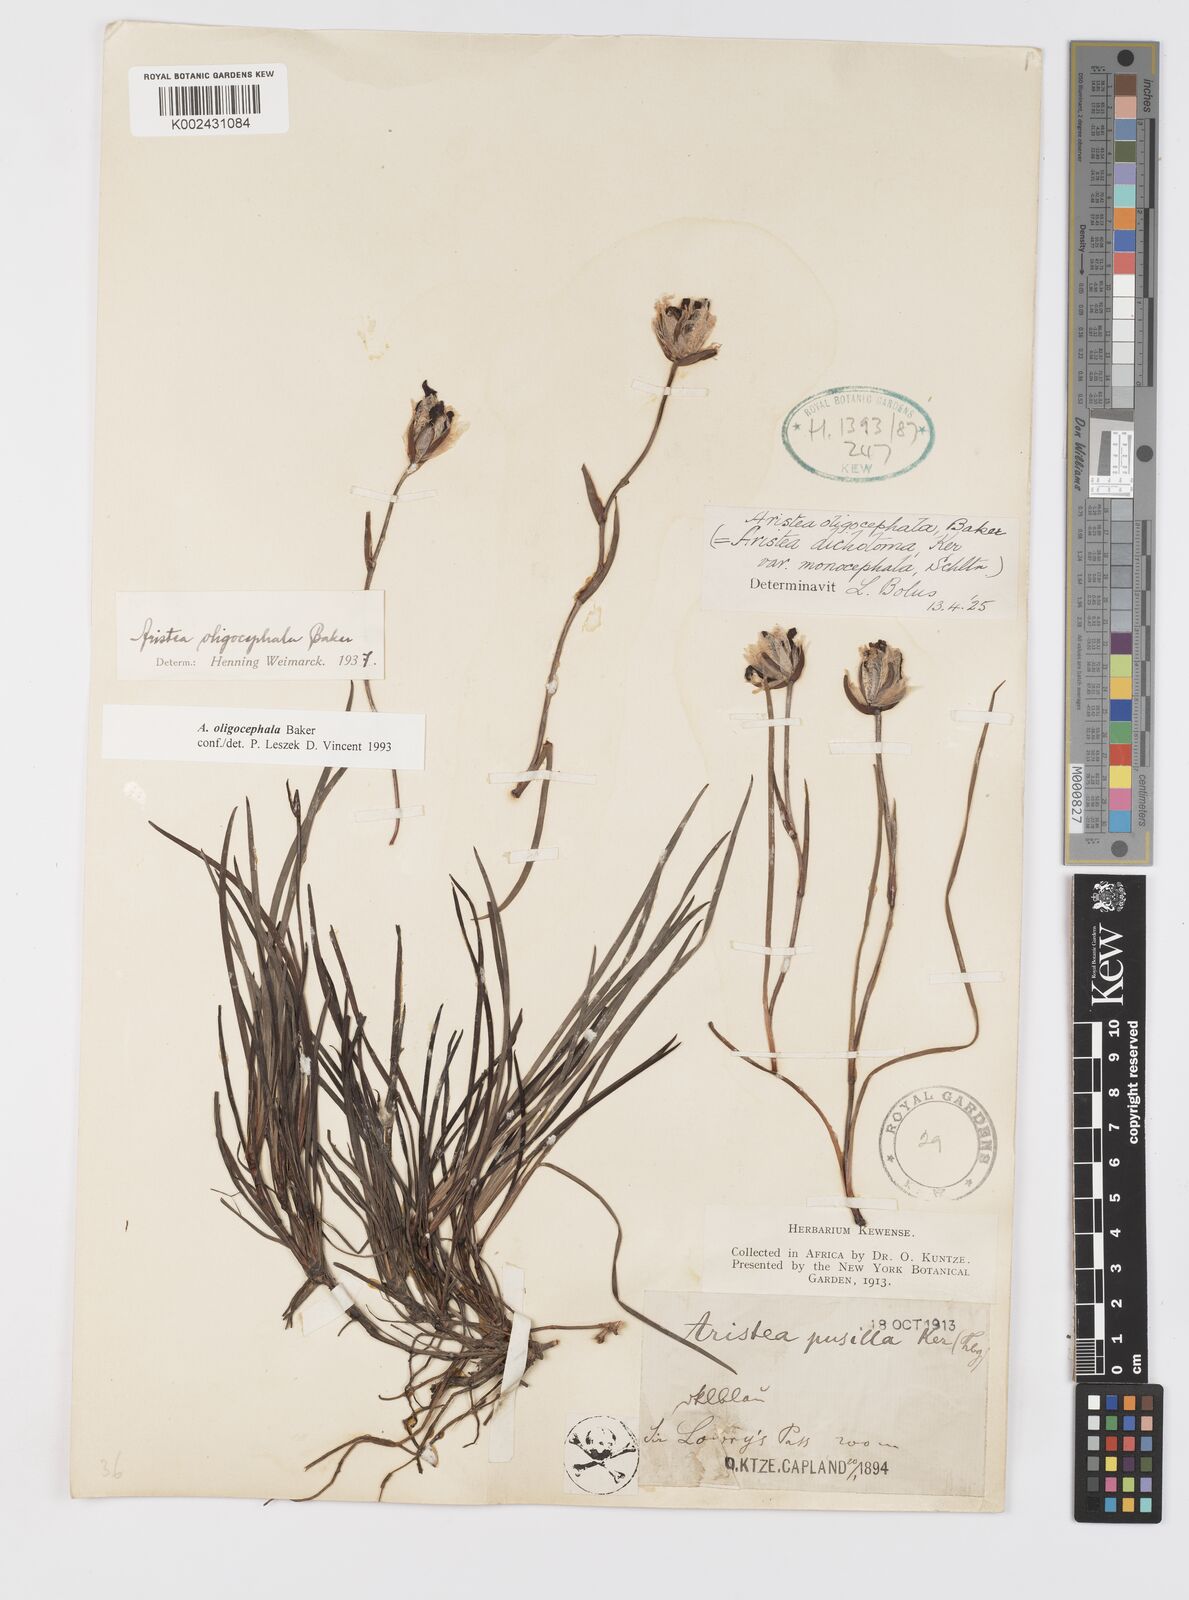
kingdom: Plantae
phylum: Tracheophyta
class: Liliopsida
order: Asparagales
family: Iridaceae
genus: Aristea
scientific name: Aristea oligocephala
